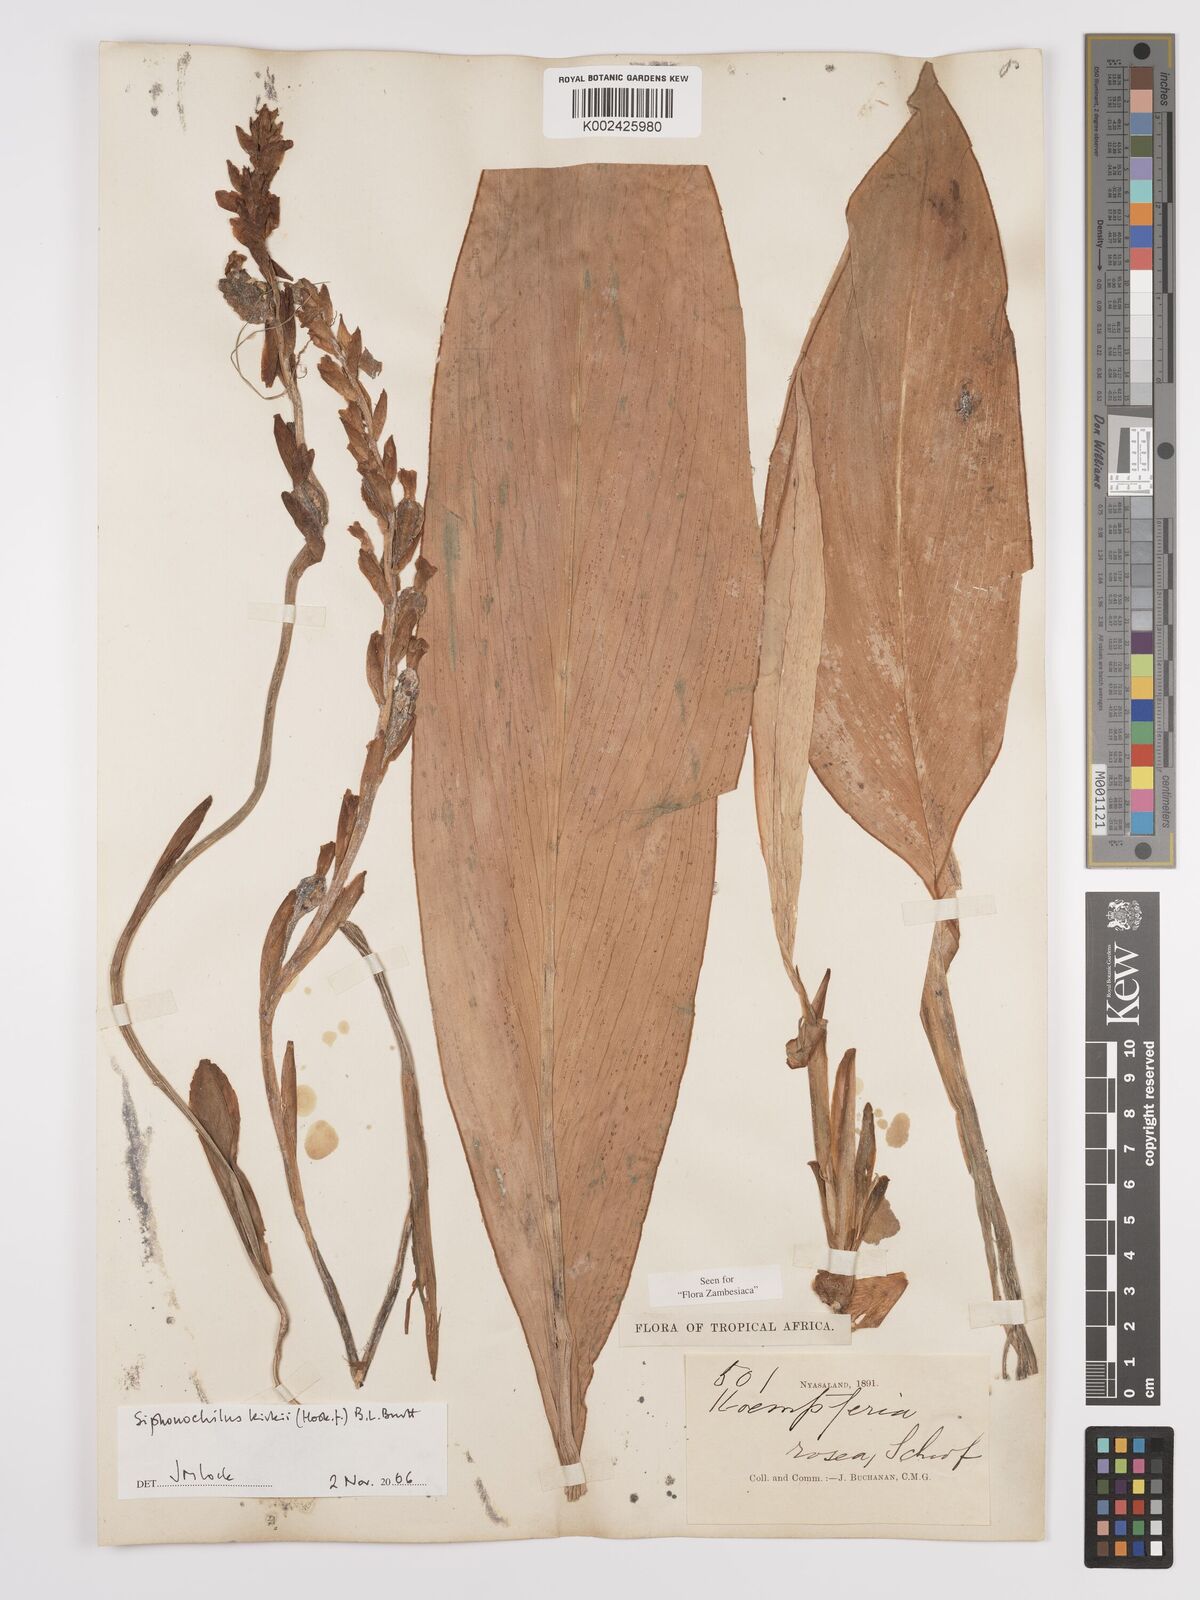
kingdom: Plantae
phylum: Tracheophyta
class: Liliopsida
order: Zingiberales
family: Zingiberaceae
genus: Siphonochilus
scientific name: Siphonochilus kirkii
